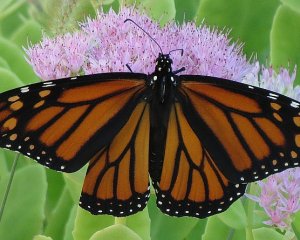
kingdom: Animalia
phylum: Arthropoda
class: Insecta
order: Lepidoptera
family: Nymphalidae
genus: Danaus
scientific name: Danaus plexippus
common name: Monarch
